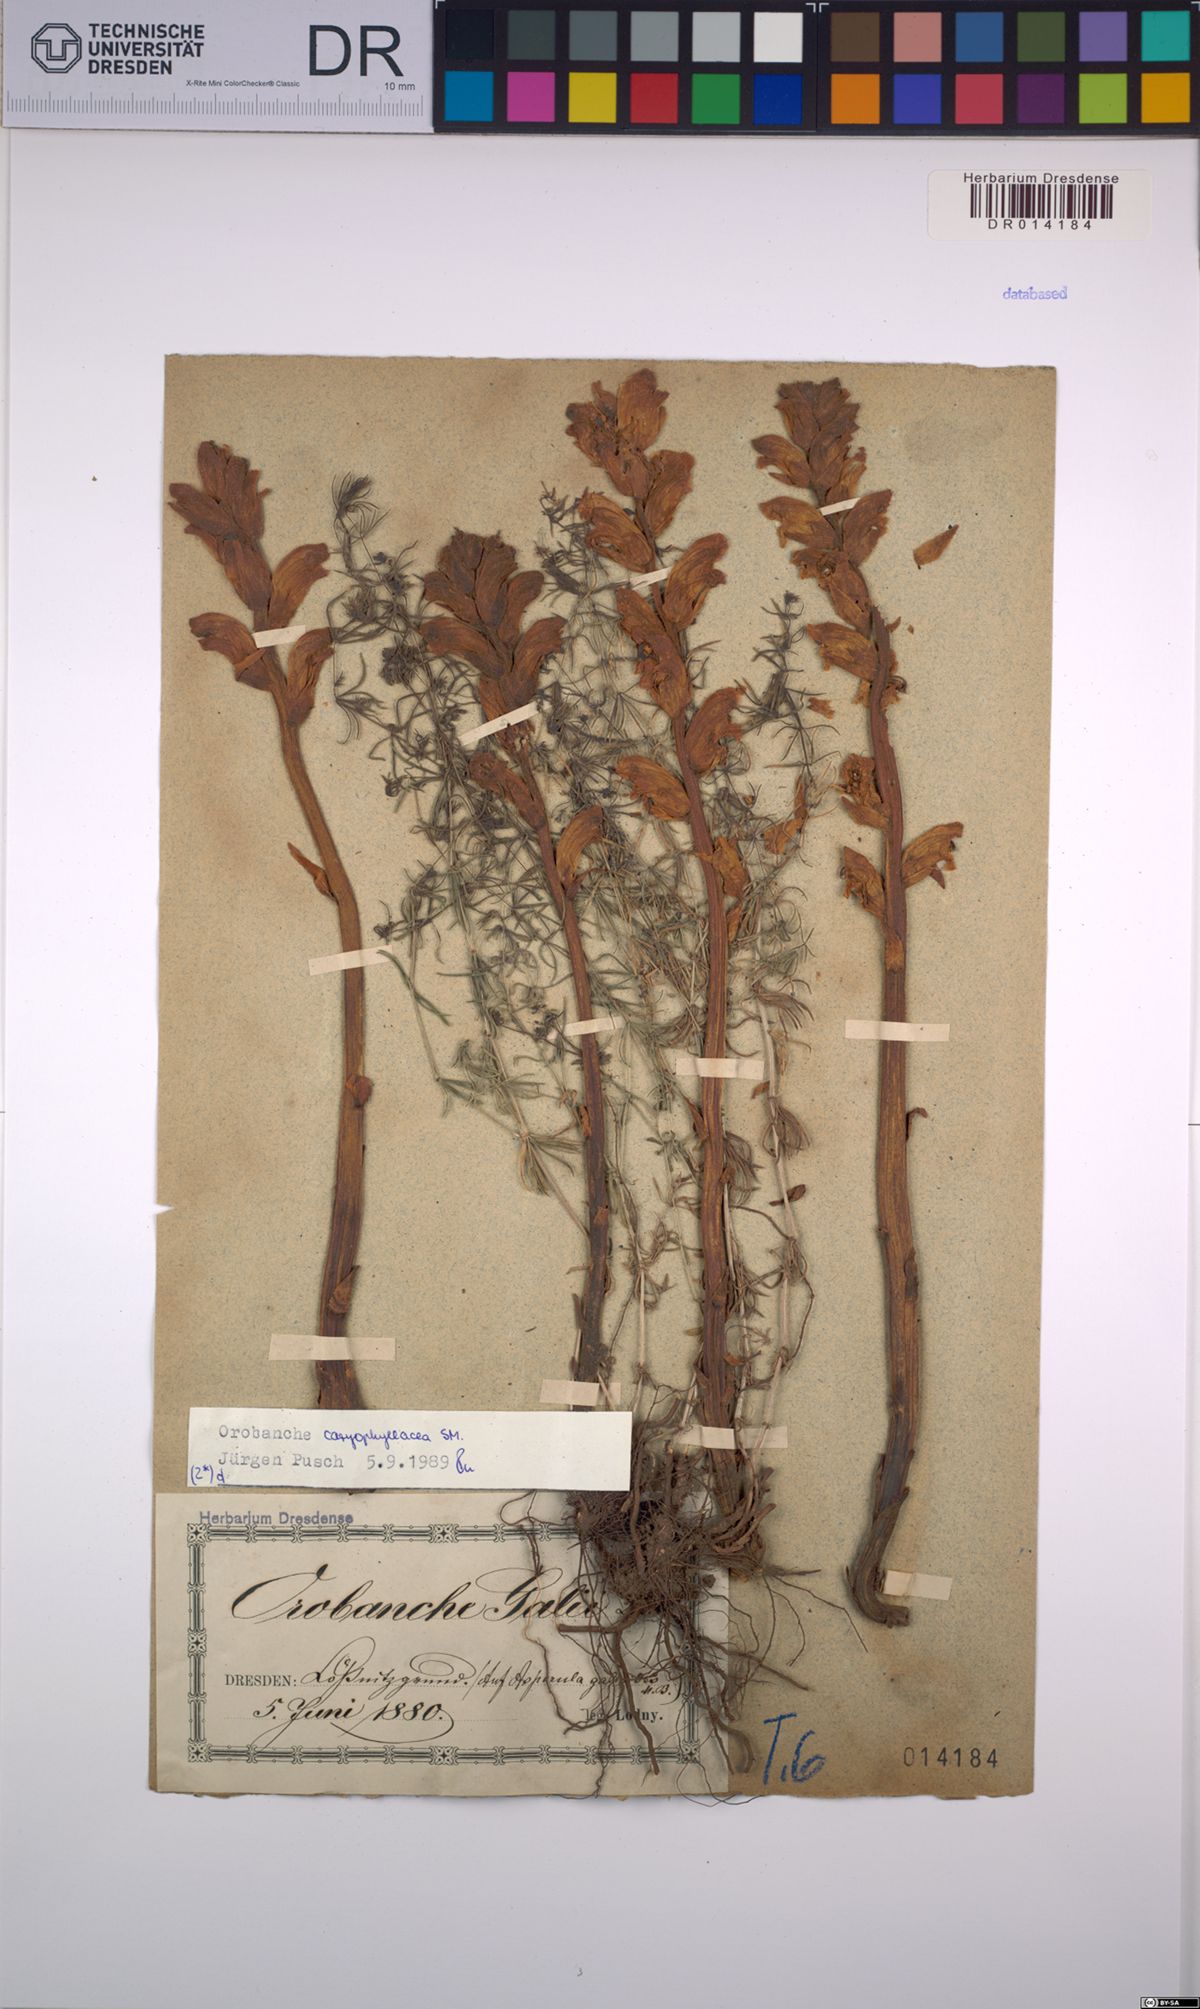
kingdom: Plantae
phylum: Tracheophyta
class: Magnoliopsida
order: Lamiales
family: Orobanchaceae
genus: Orobanche
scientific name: Orobanche caryophyllacea
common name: Bedstraw broomrape
